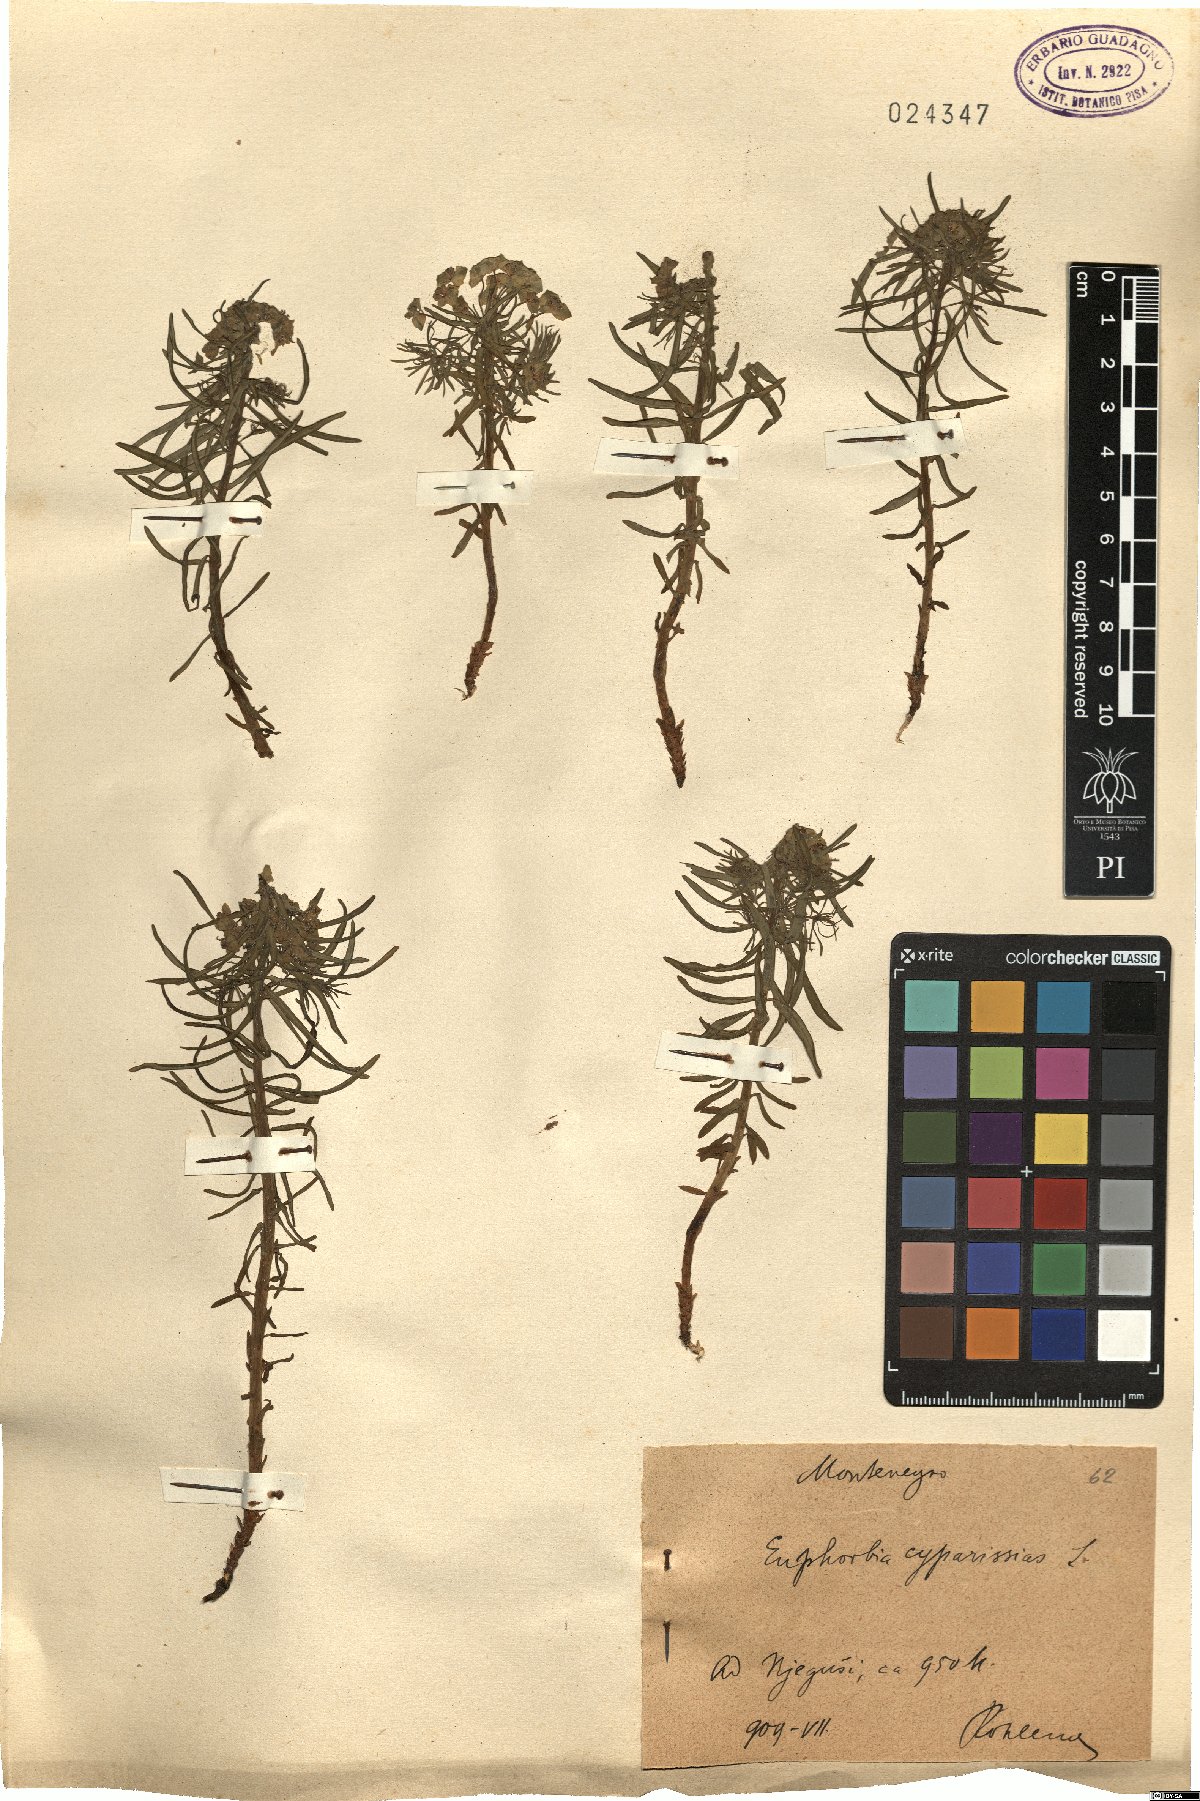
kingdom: Plantae
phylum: Tracheophyta
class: Magnoliopsida
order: Malpighiales
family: Euphorbiaceae
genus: Euphorbia
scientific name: Euphorbia cyparissias
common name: Cypress spurge
